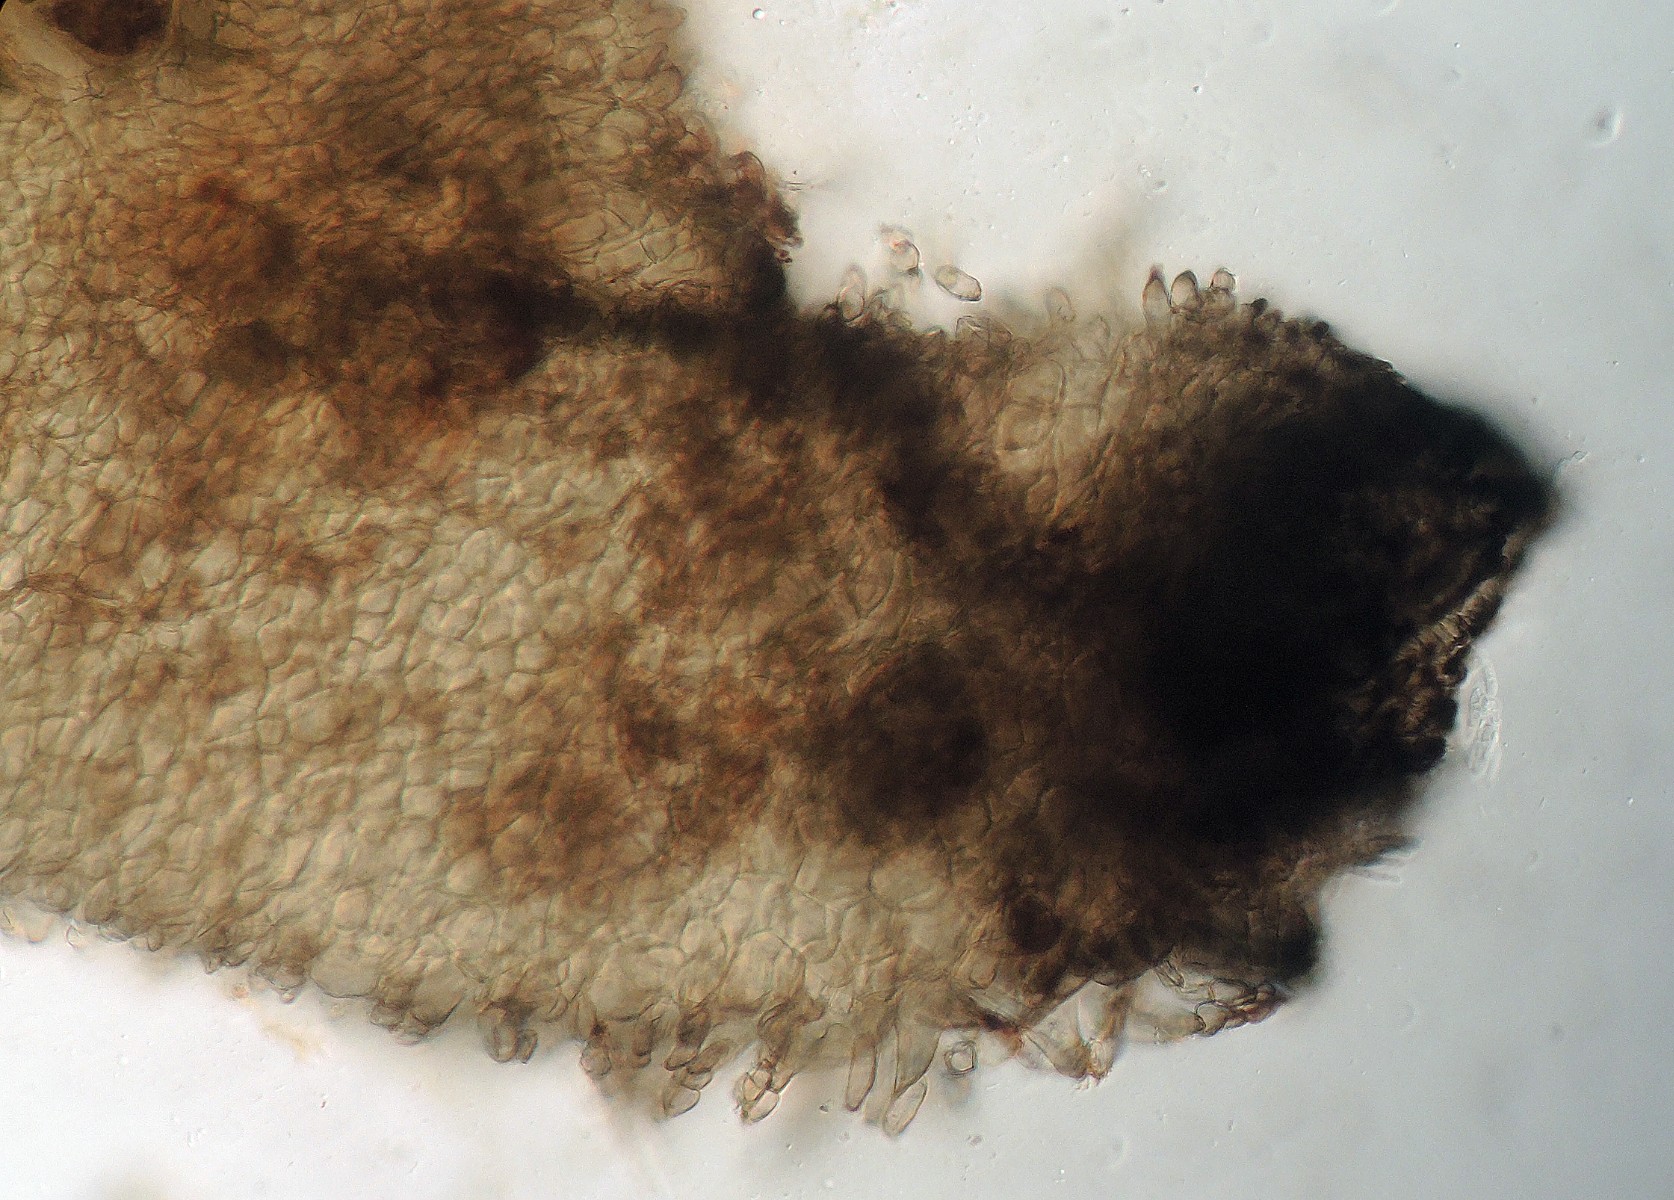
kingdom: Fungi
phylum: Ascomycota
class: Sordariomycetes
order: Sordariales
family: Neoschizotheciaceae
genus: Neoschizothecium
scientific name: Neoschizothecium tetrasporum
